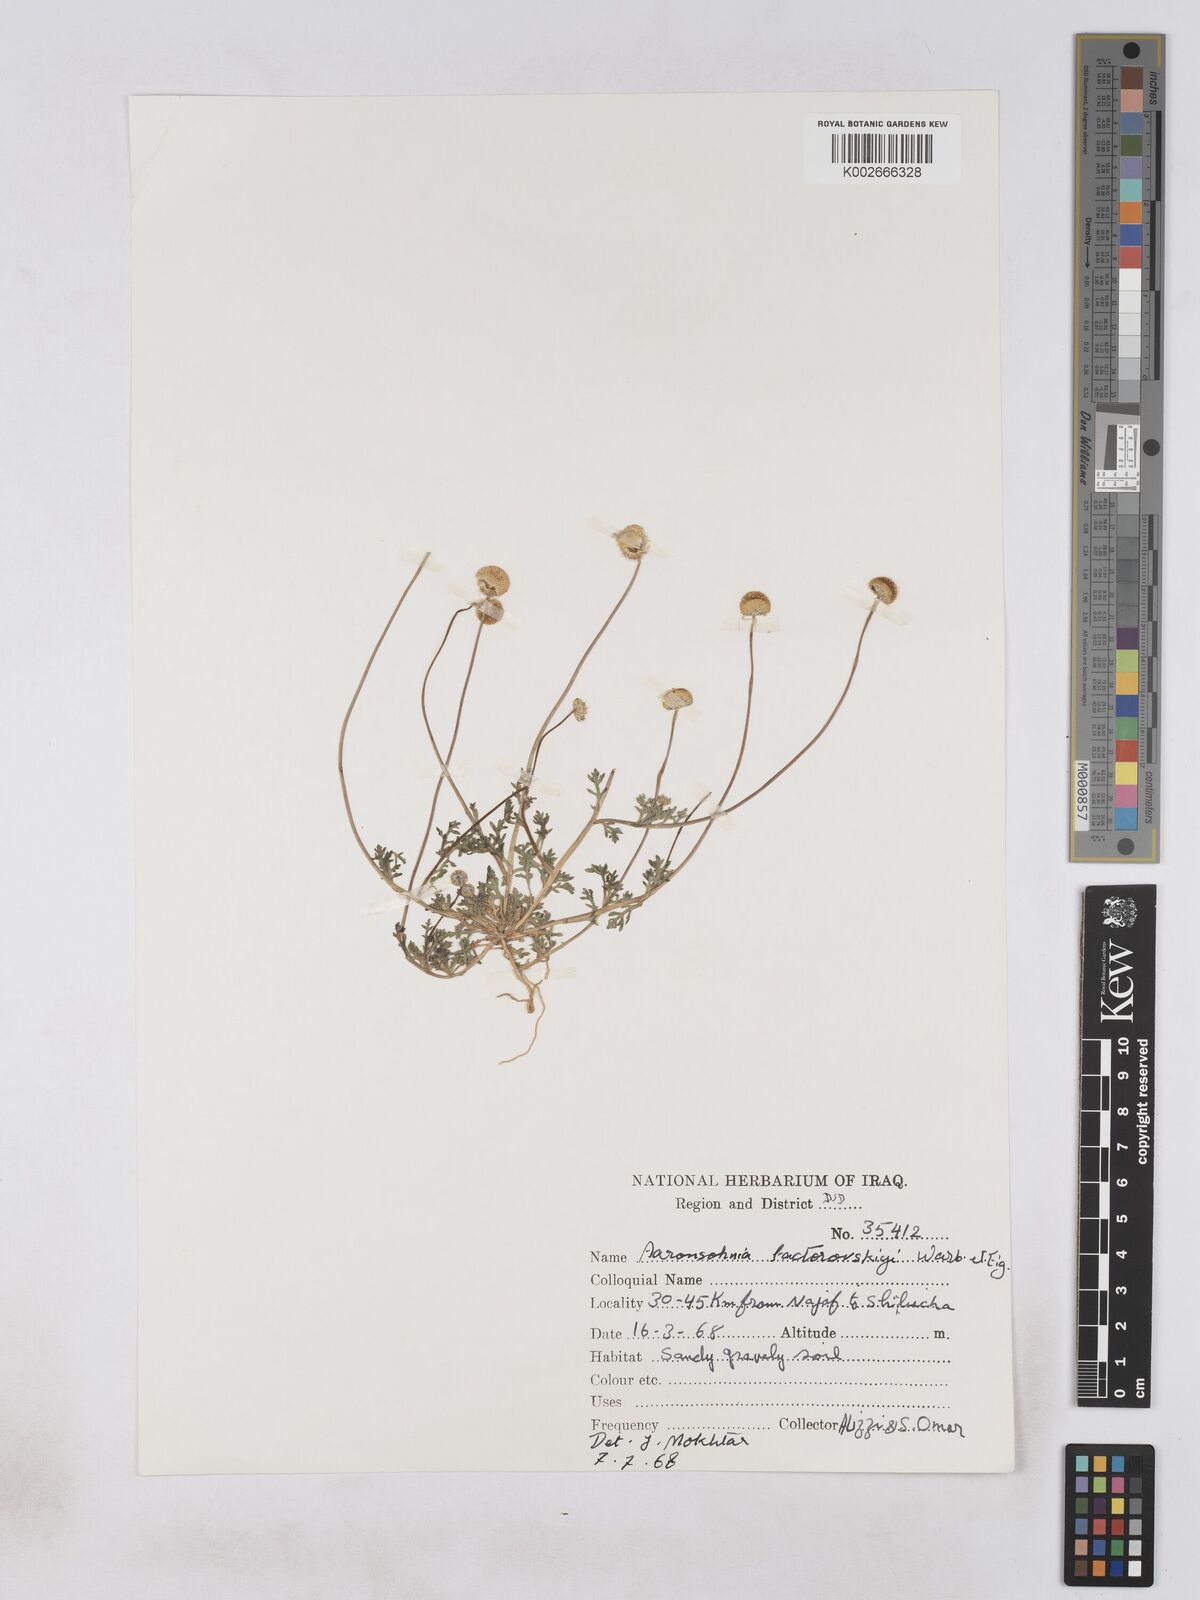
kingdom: Plantae
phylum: Tracheophyta
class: Magnoliopsida
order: Asterales
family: Asteraceae
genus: Otoglyphis
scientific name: Otoglyphis factorovskyi
